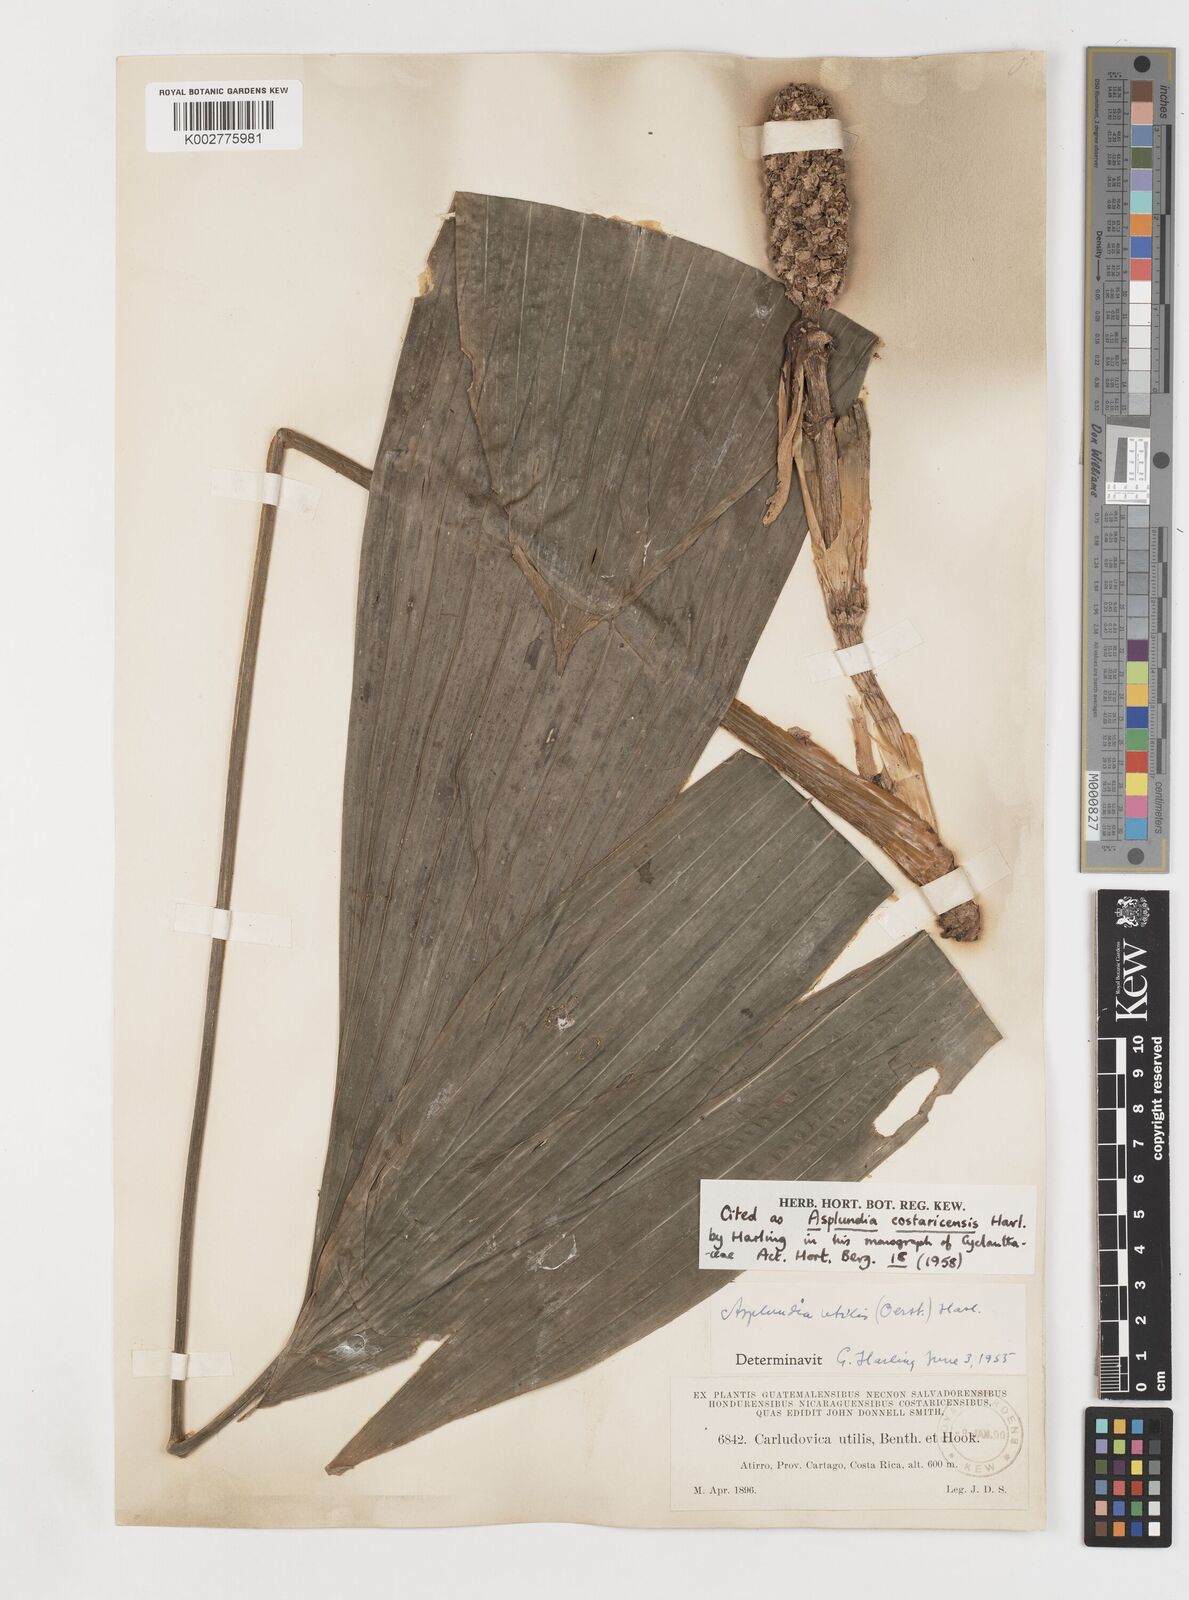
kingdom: Plantae
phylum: Tracheophyta
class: Liliopsida
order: Pandanales
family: Cyclanthaceae
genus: Asplundia
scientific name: Asplundia utilis
